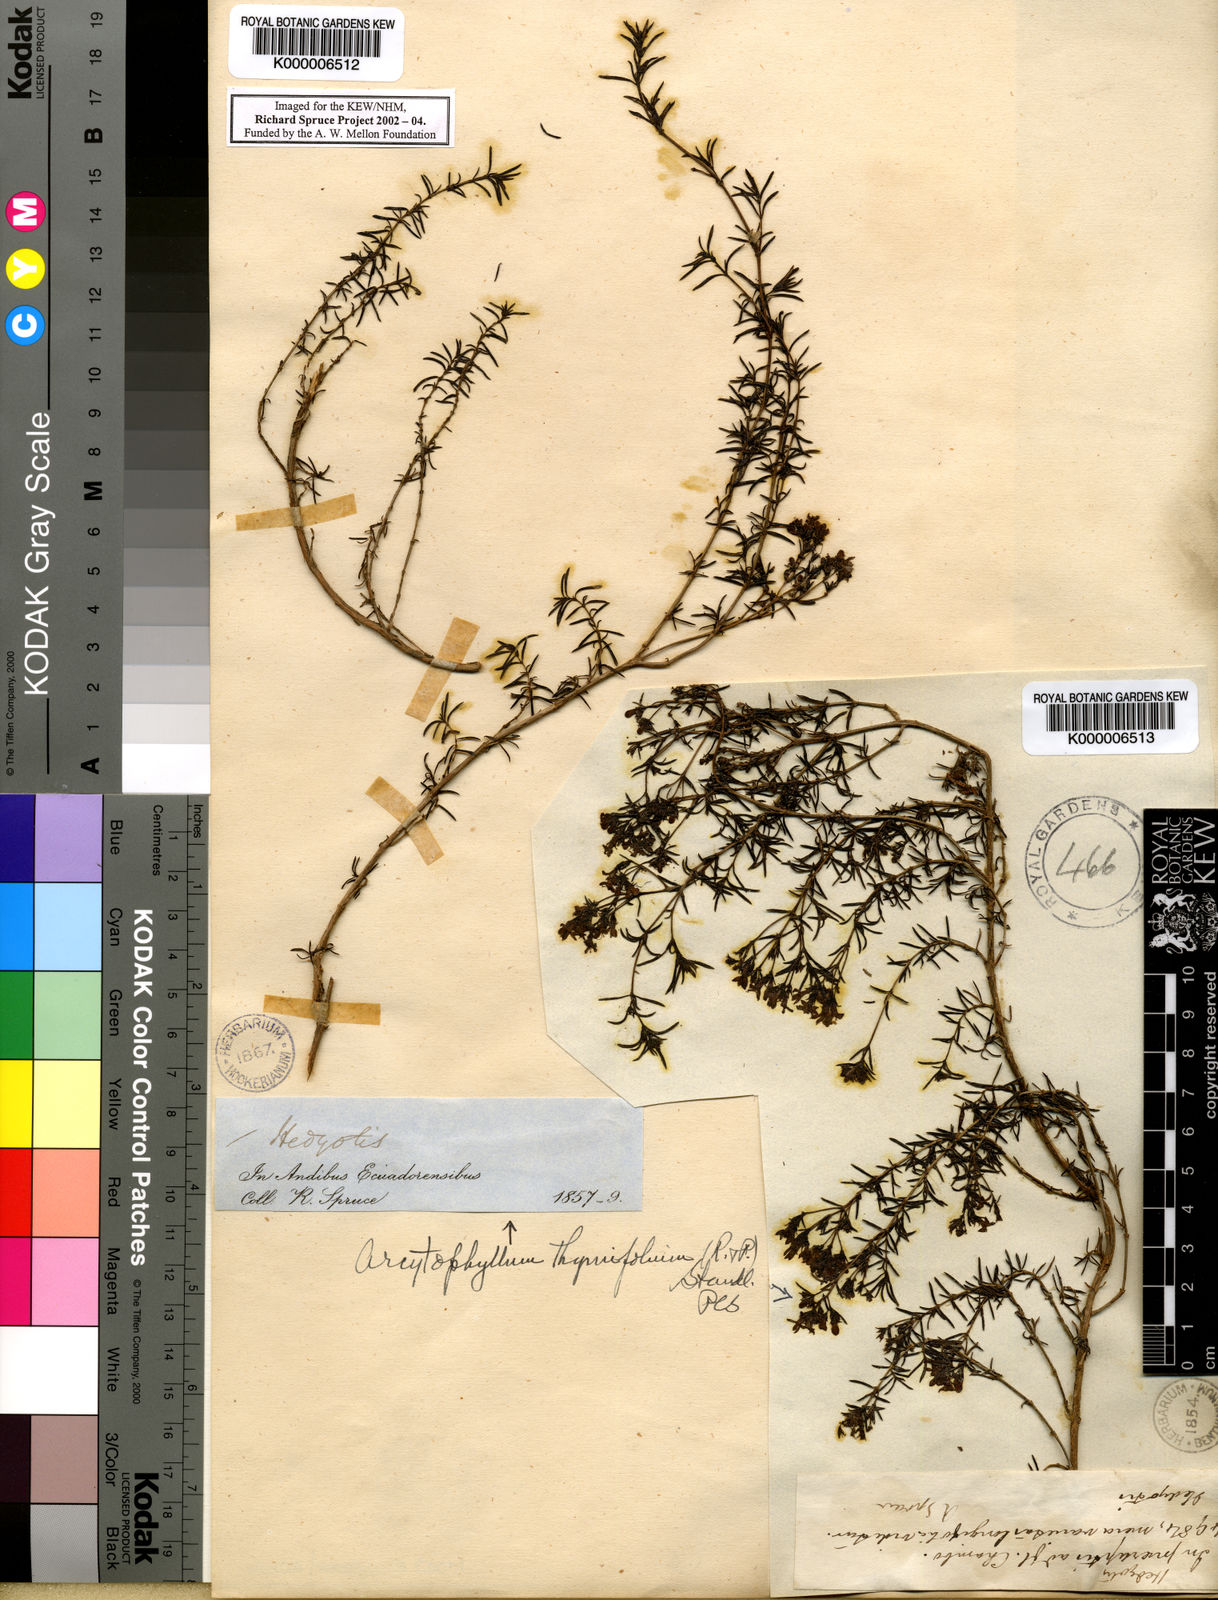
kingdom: Plantae
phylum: Tracheophyta
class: Magnoliopsida
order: Gentianales
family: Rubiaceae
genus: Arcytophyllum
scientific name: Arcytophyllum thymifolium
